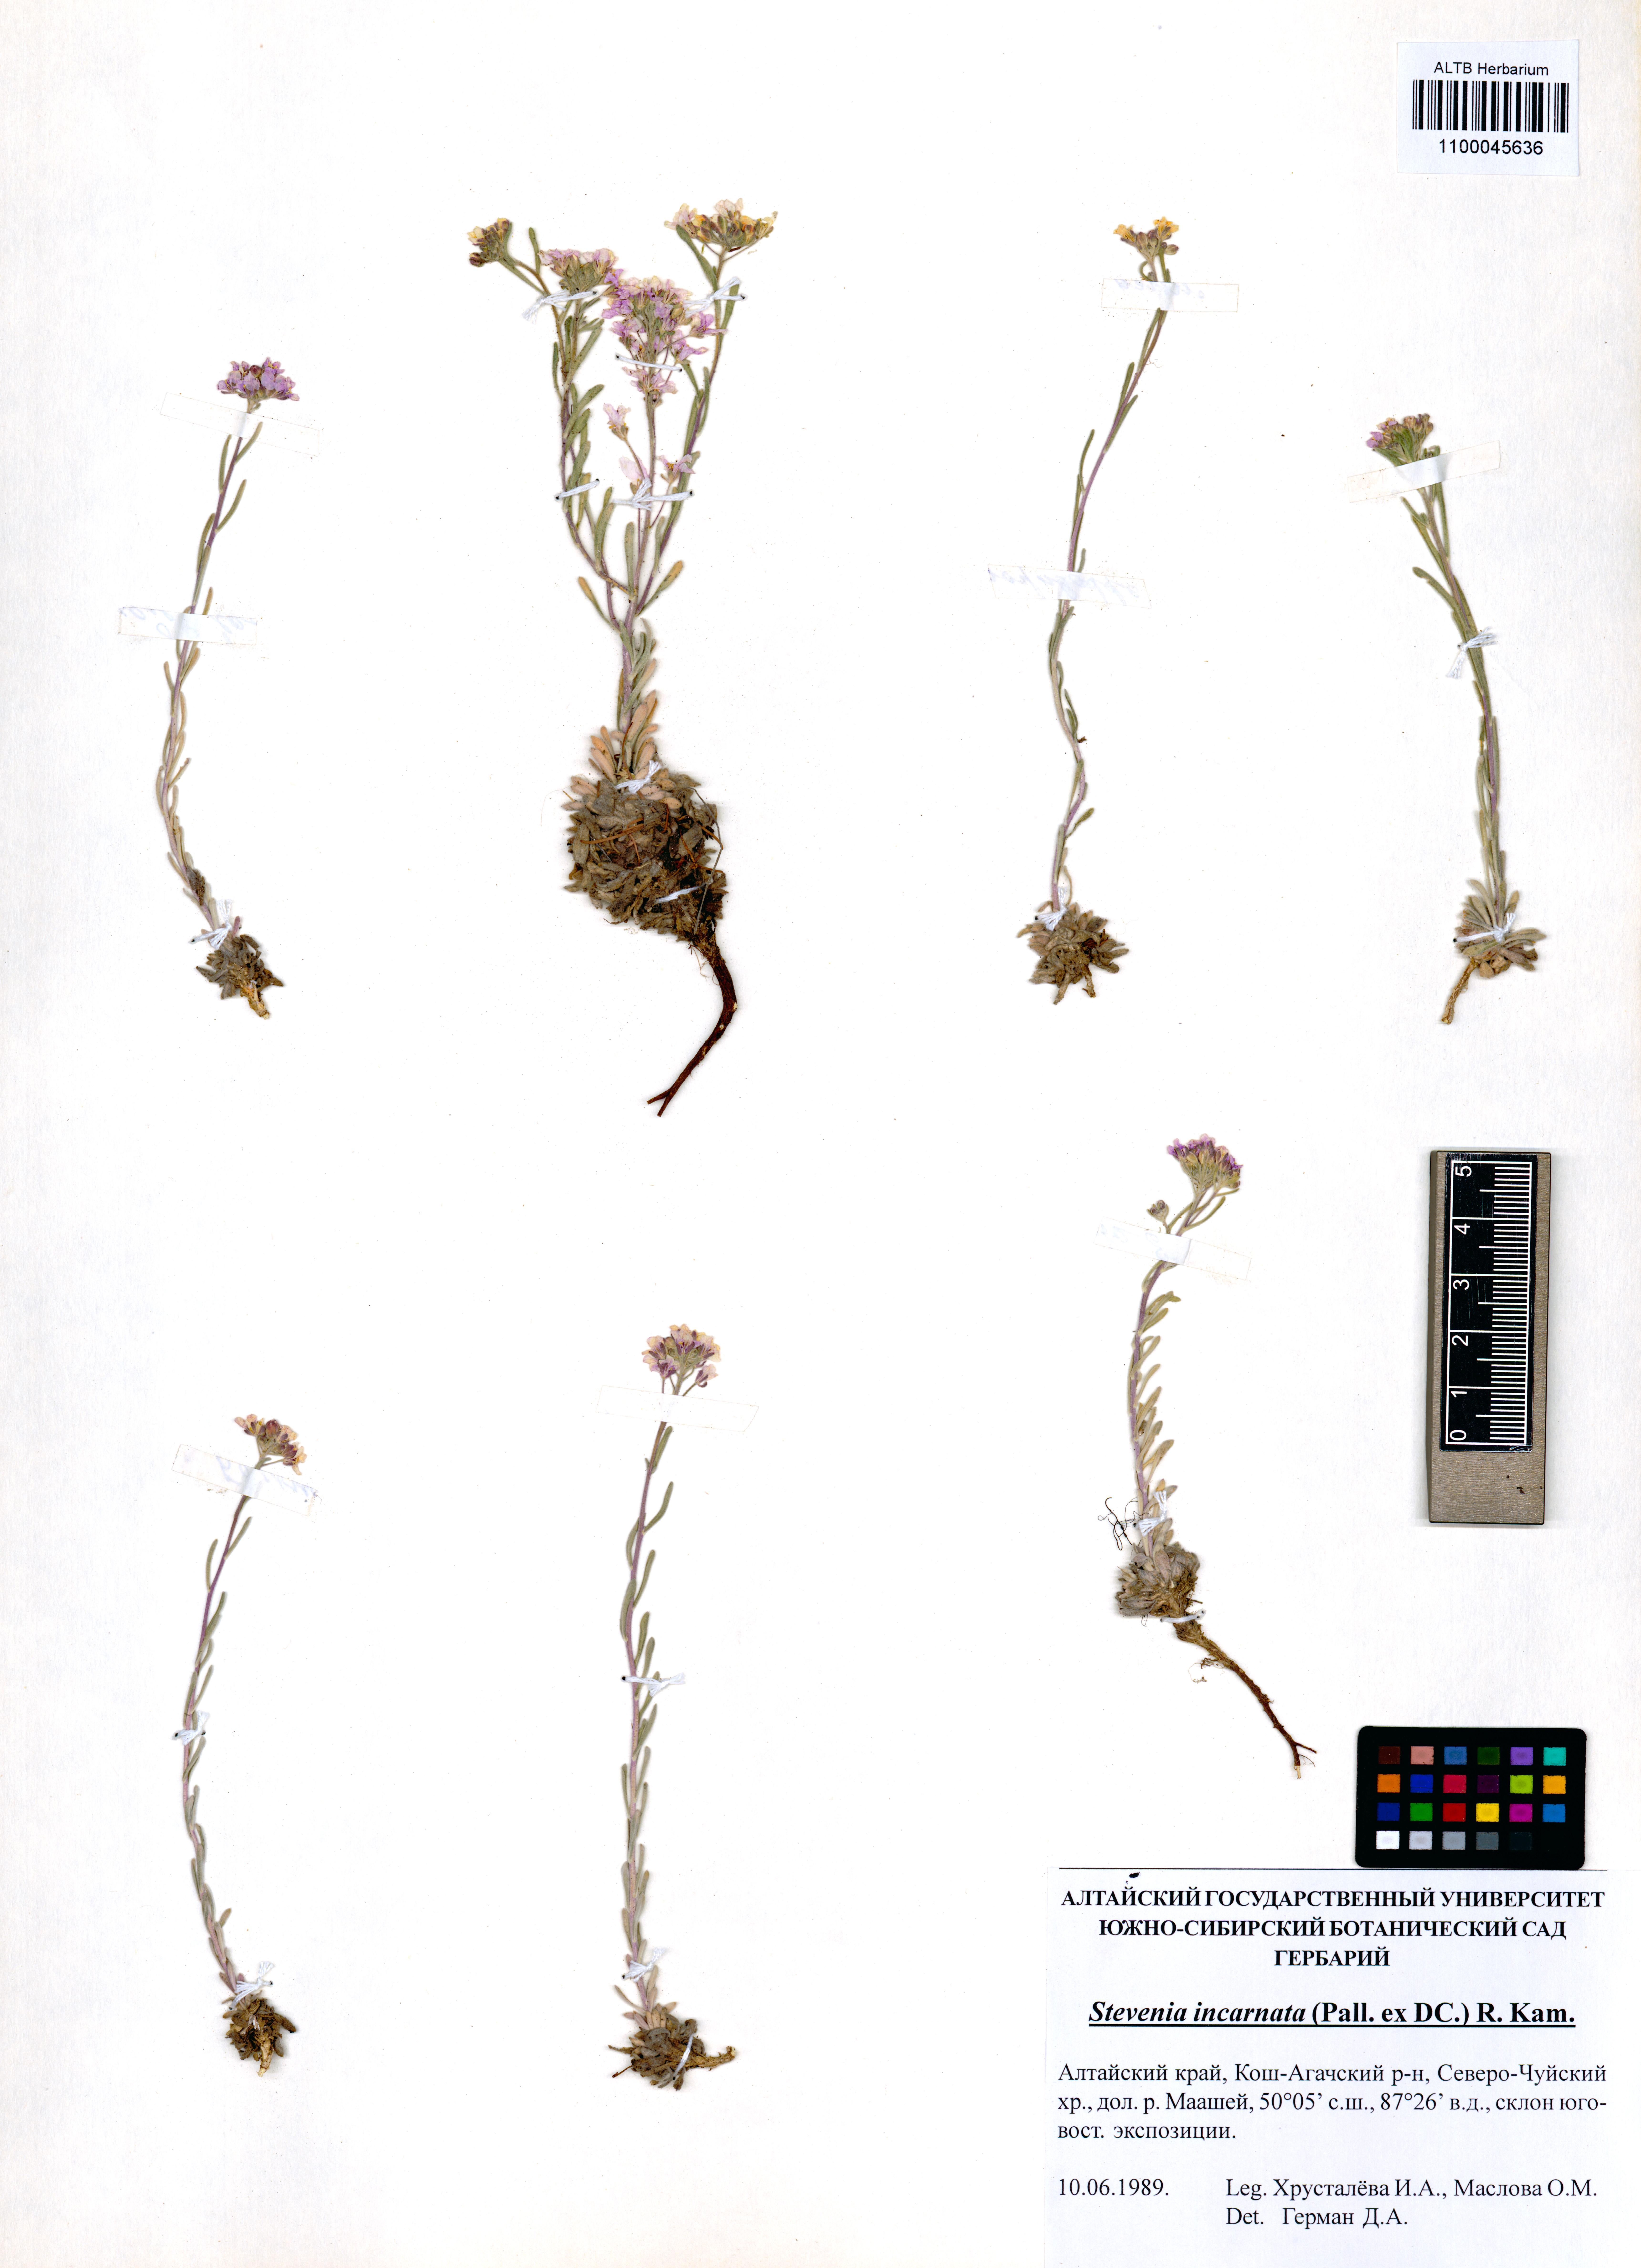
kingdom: Plantae
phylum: Tracheophyta
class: Magnoliopsida
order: Brassicales
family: Brassicaceae
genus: Stevenia
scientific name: Stevenia incarnata
